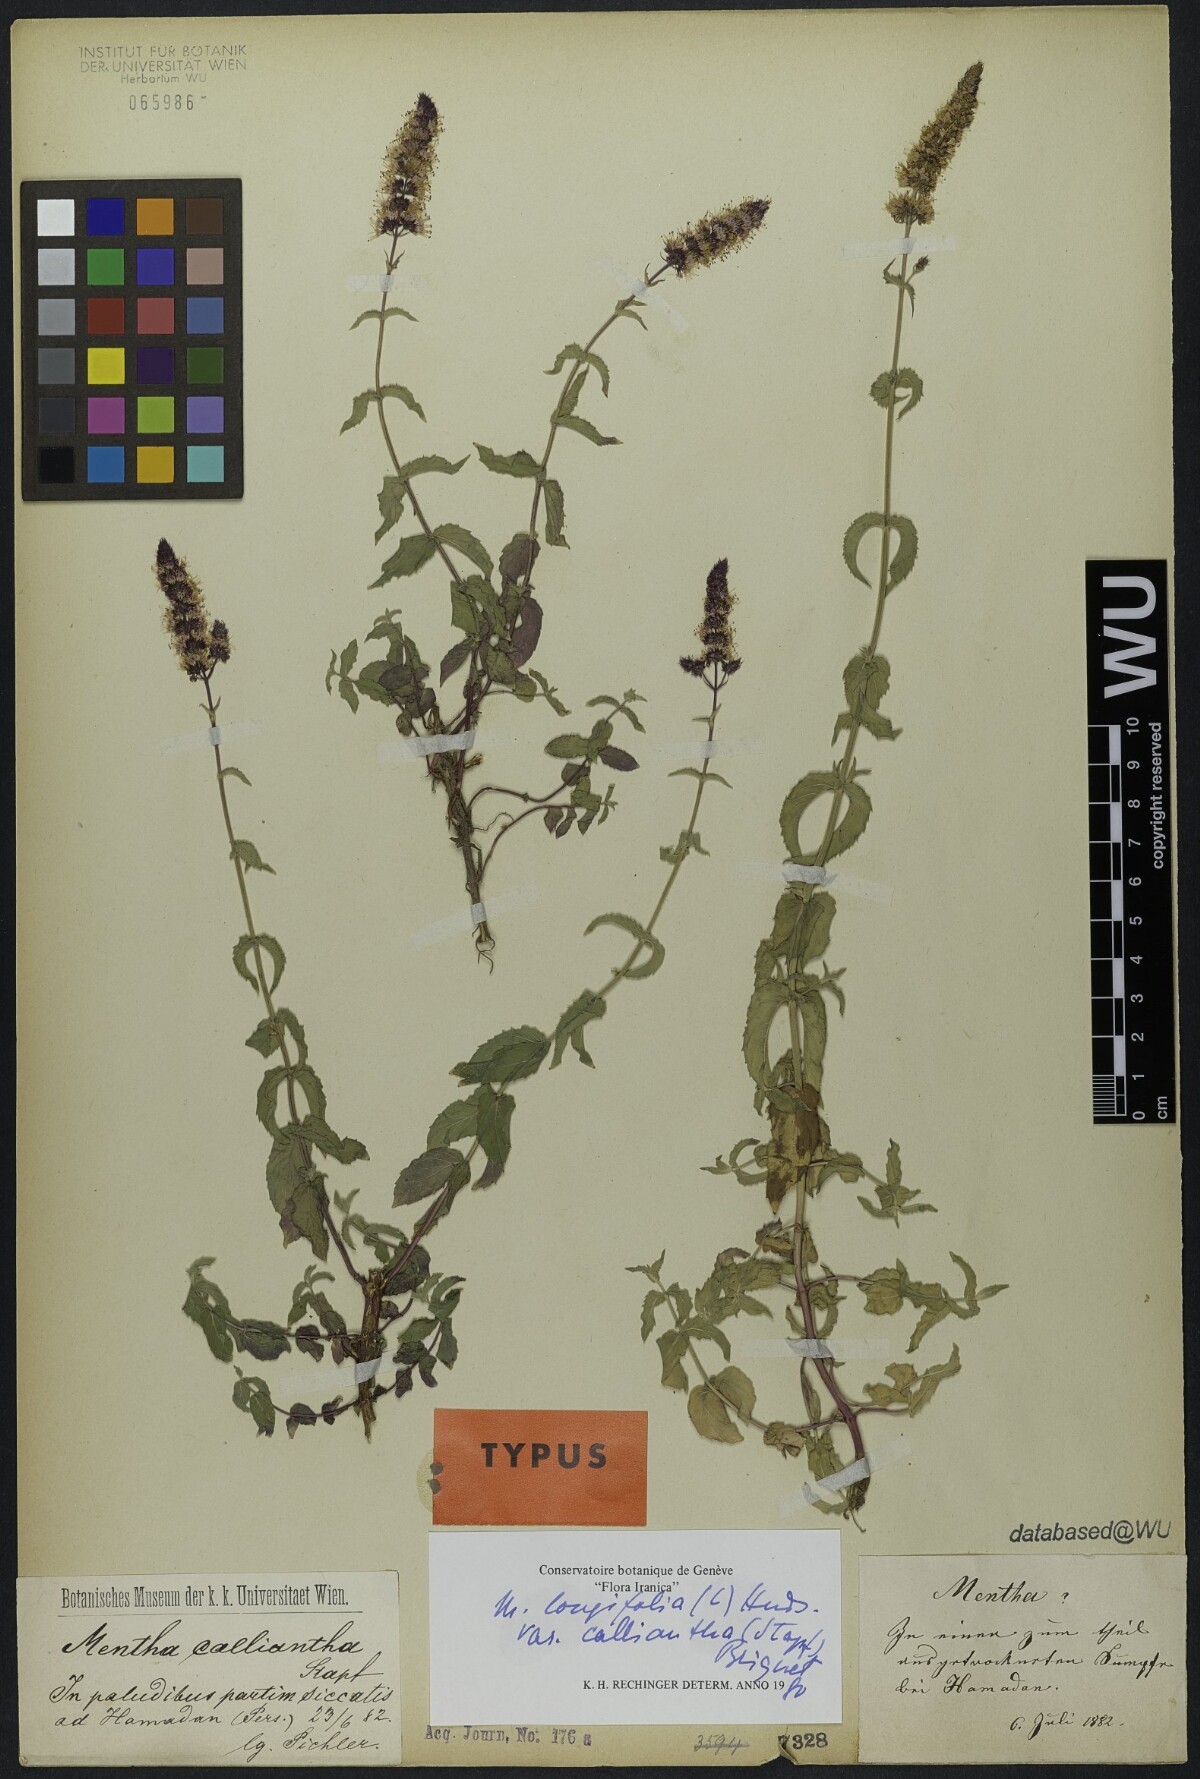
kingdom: Plantae
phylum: Tracheophyta
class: Magnoliopsida
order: Lamiales
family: Lamiaceae
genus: Mentha
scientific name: Mentha longifolia
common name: Horse mint
